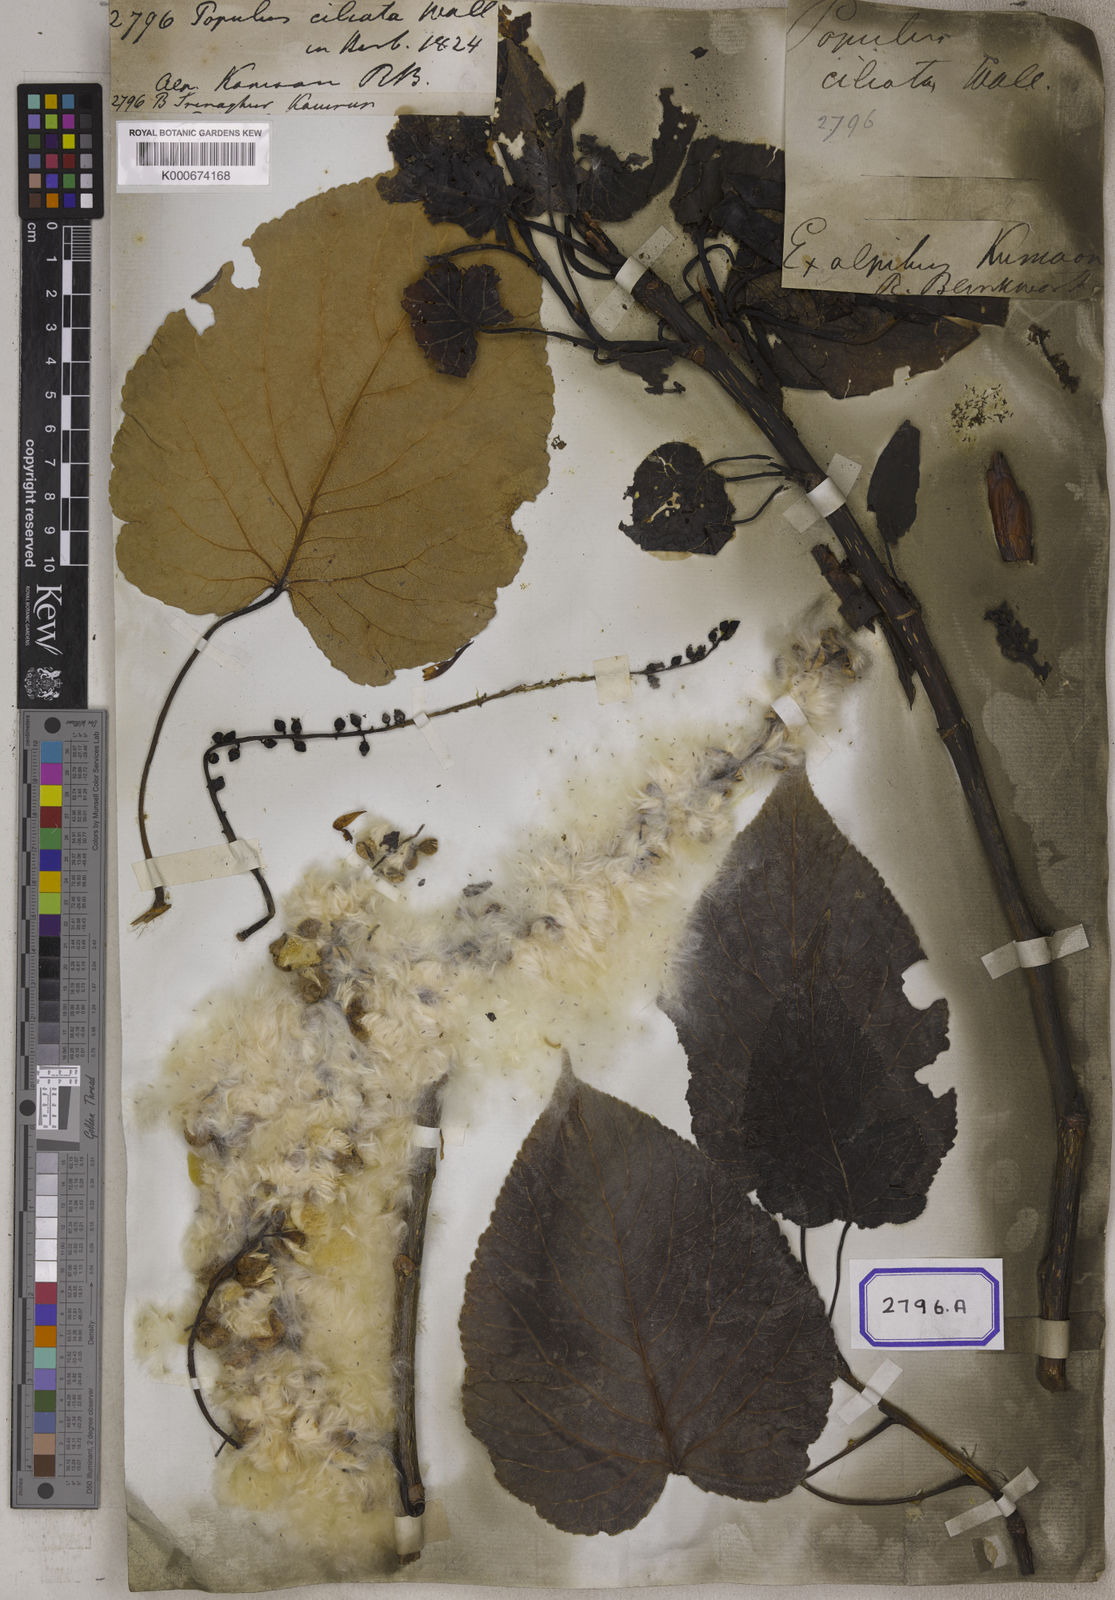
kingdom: Plantae
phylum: Tracheophyta
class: Magnoliopsida
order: Malpighiales
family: Salicaceae
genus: Populus
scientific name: Populus
